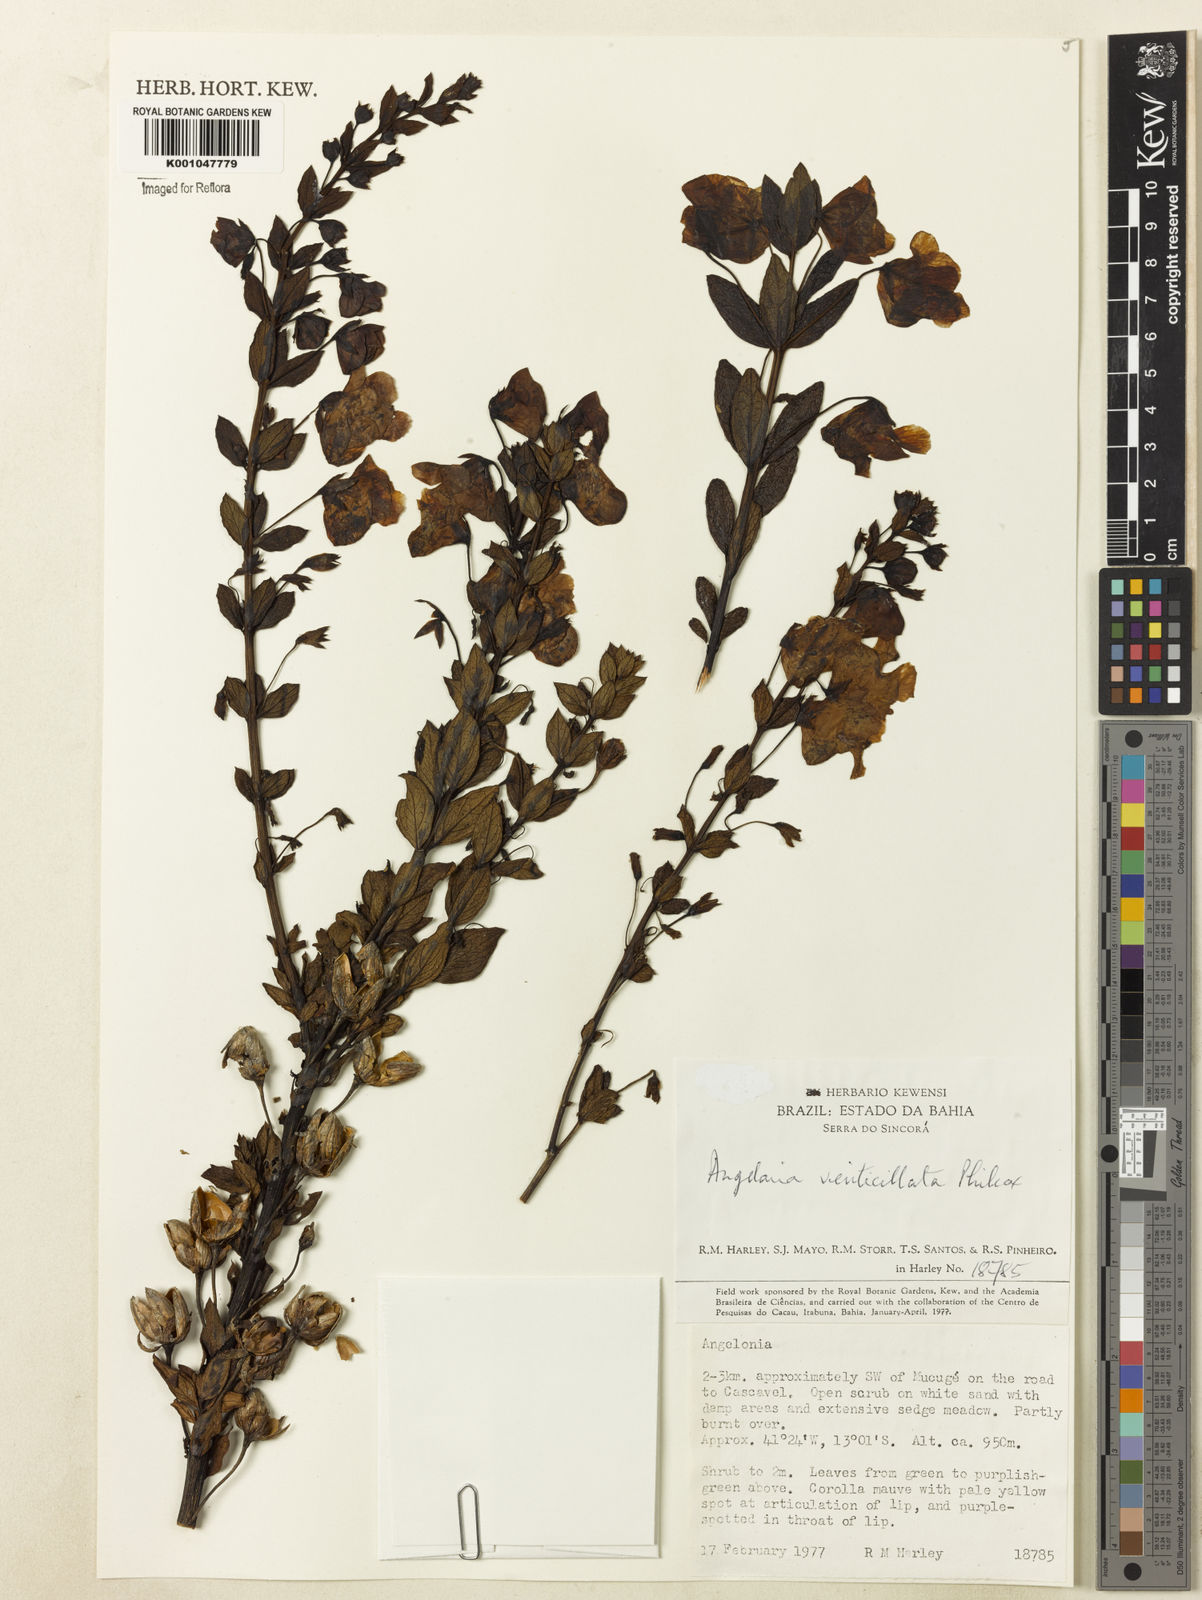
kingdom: Plantae
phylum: Tracheophyta
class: Magnoliopsida
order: Lamiales
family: Plantaginaceae
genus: Angelonia
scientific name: Angelonia verticillata
